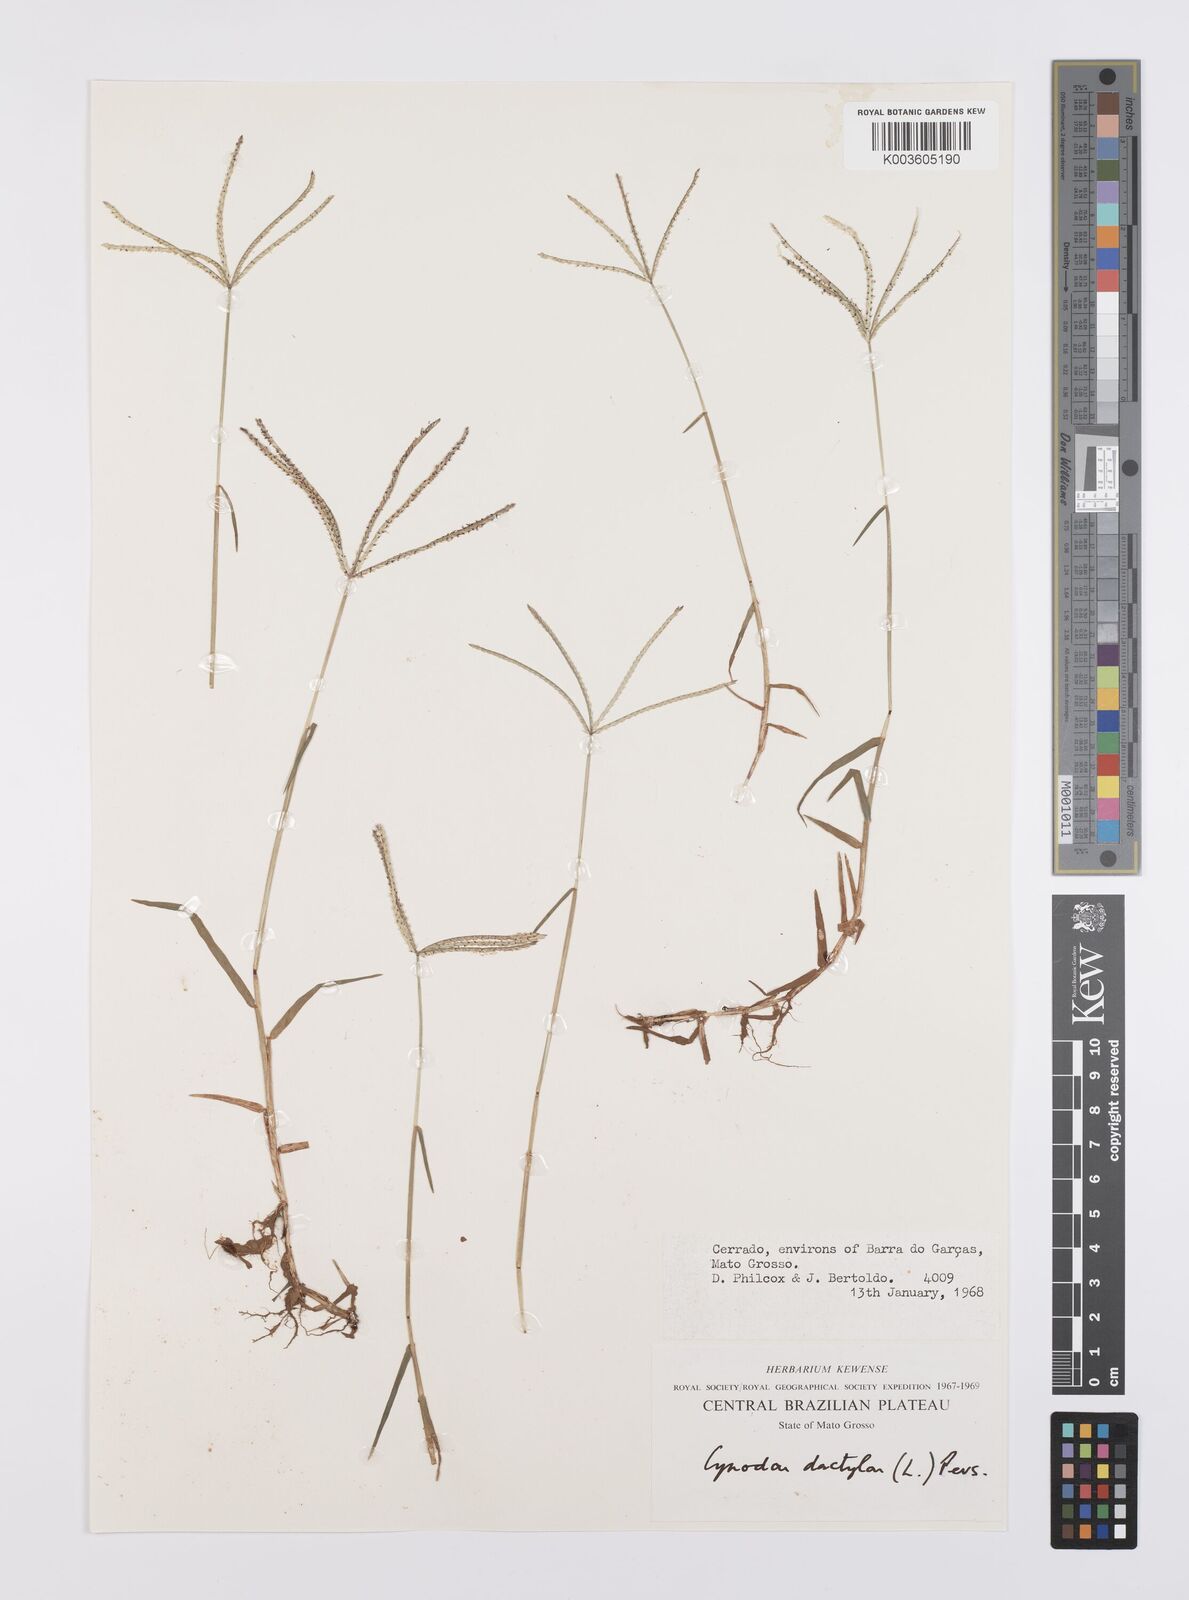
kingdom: Plantae
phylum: Tracheophyta
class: Liliopsida
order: Poales
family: Poaceae
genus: Cynodon
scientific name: Cynodon dactylon
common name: Bermuda grass
